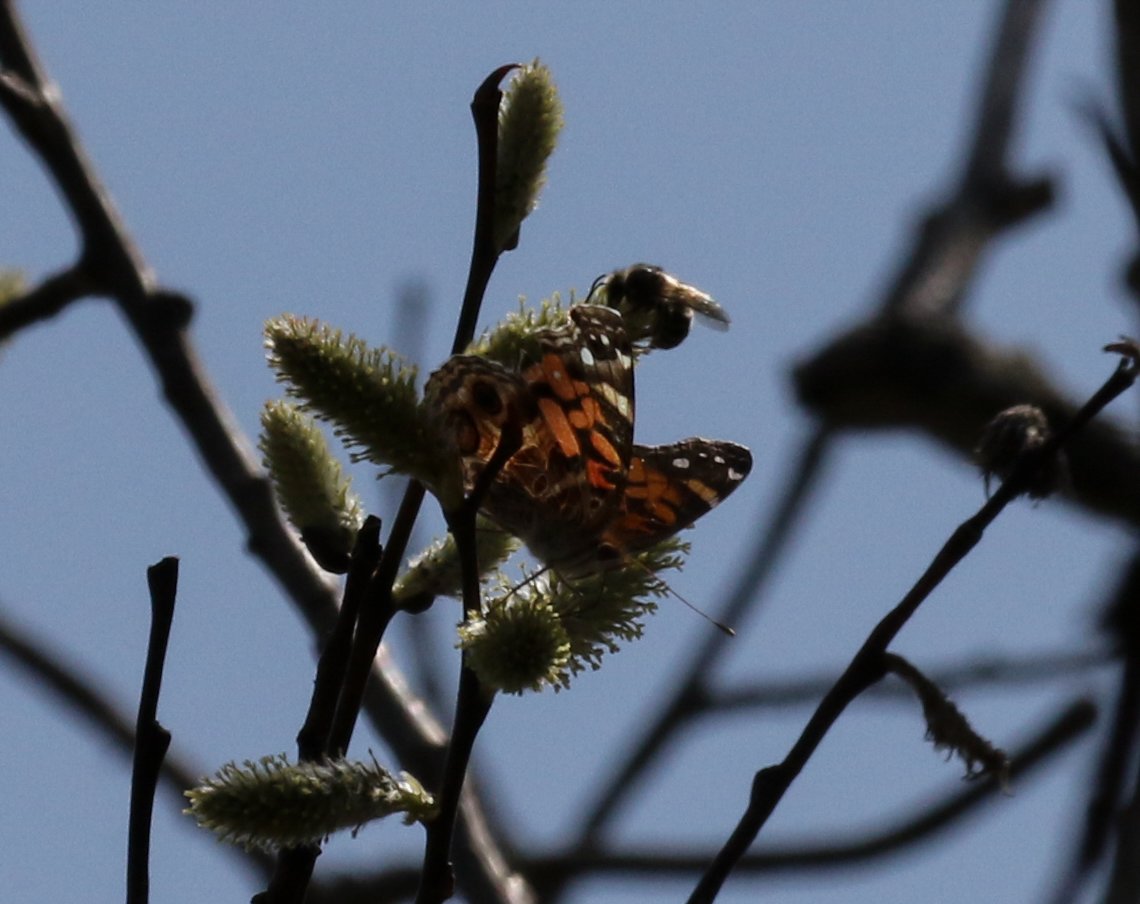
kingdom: Animalia
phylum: Arthropoda
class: Insecta
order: Lepidoptera
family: Nymphalidae
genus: Vanessa
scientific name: Vanessa virginiensis
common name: American Lady
